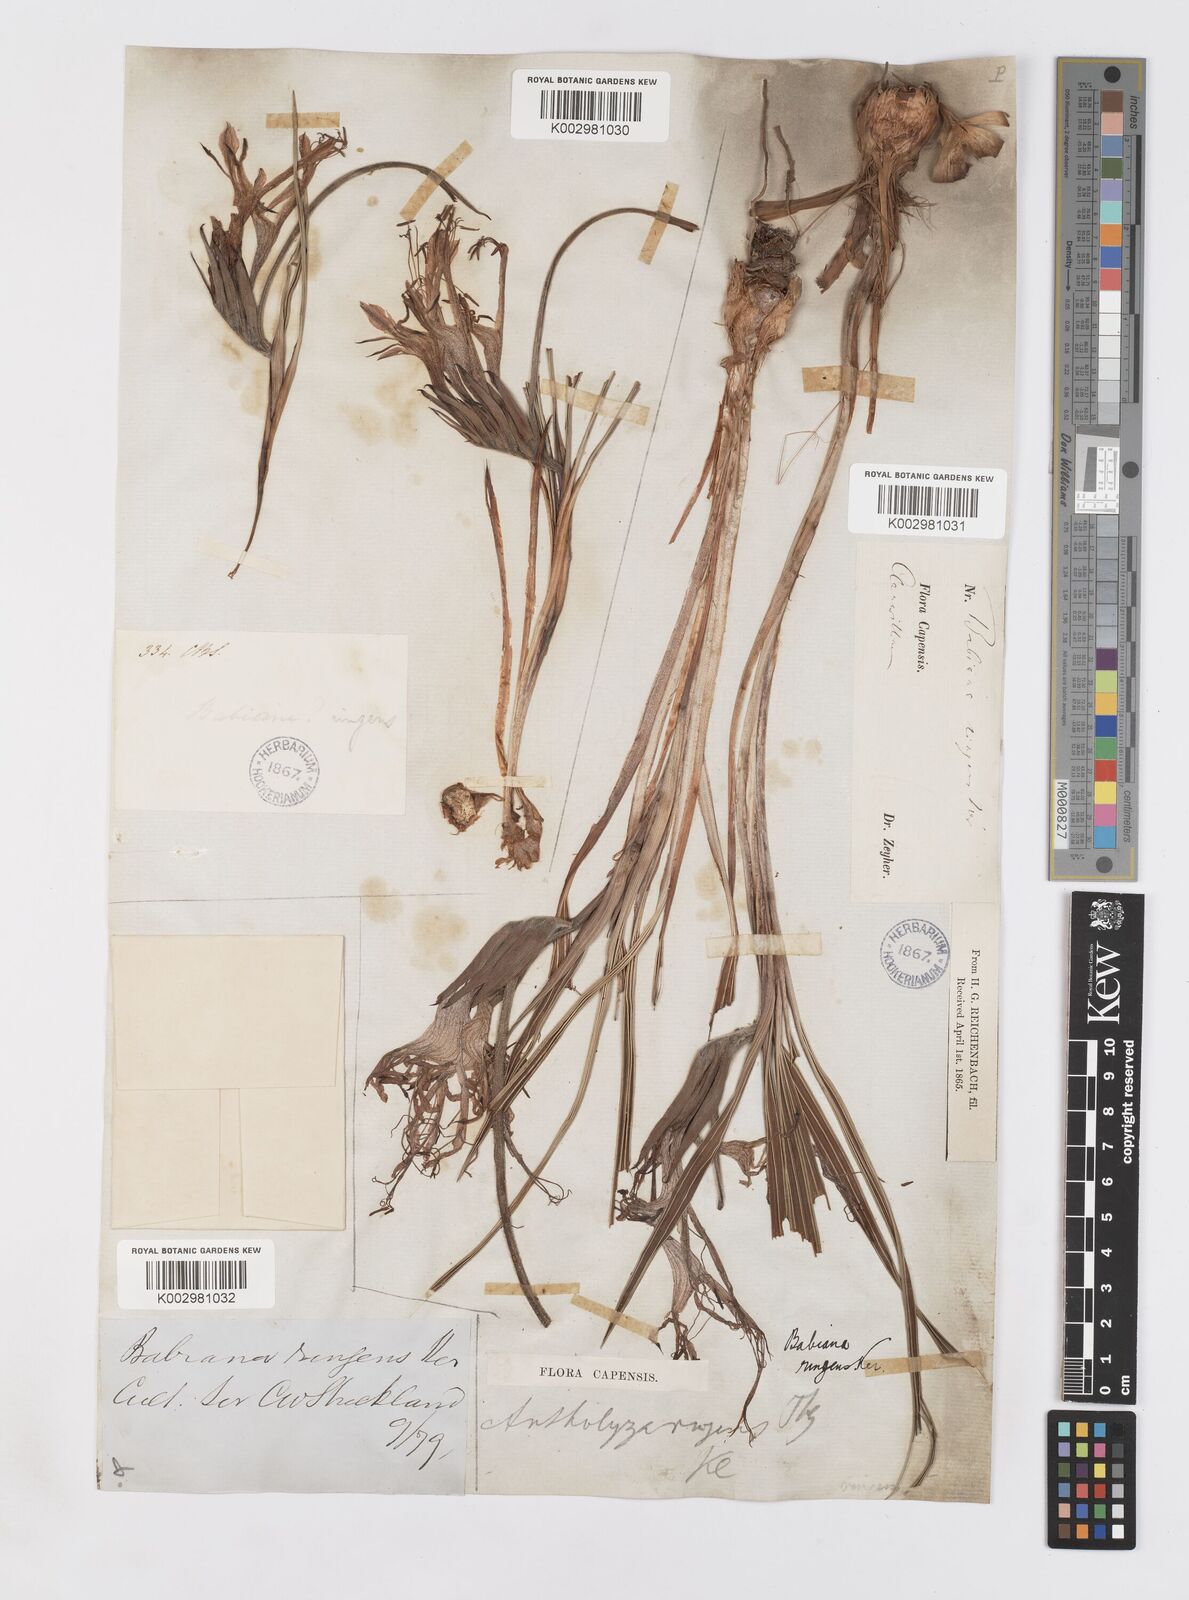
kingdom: Plantae
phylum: Tracheophyta
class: Liliopsida
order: Asparagales
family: Iridaceae
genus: Babiana
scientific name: Babiana ringens
